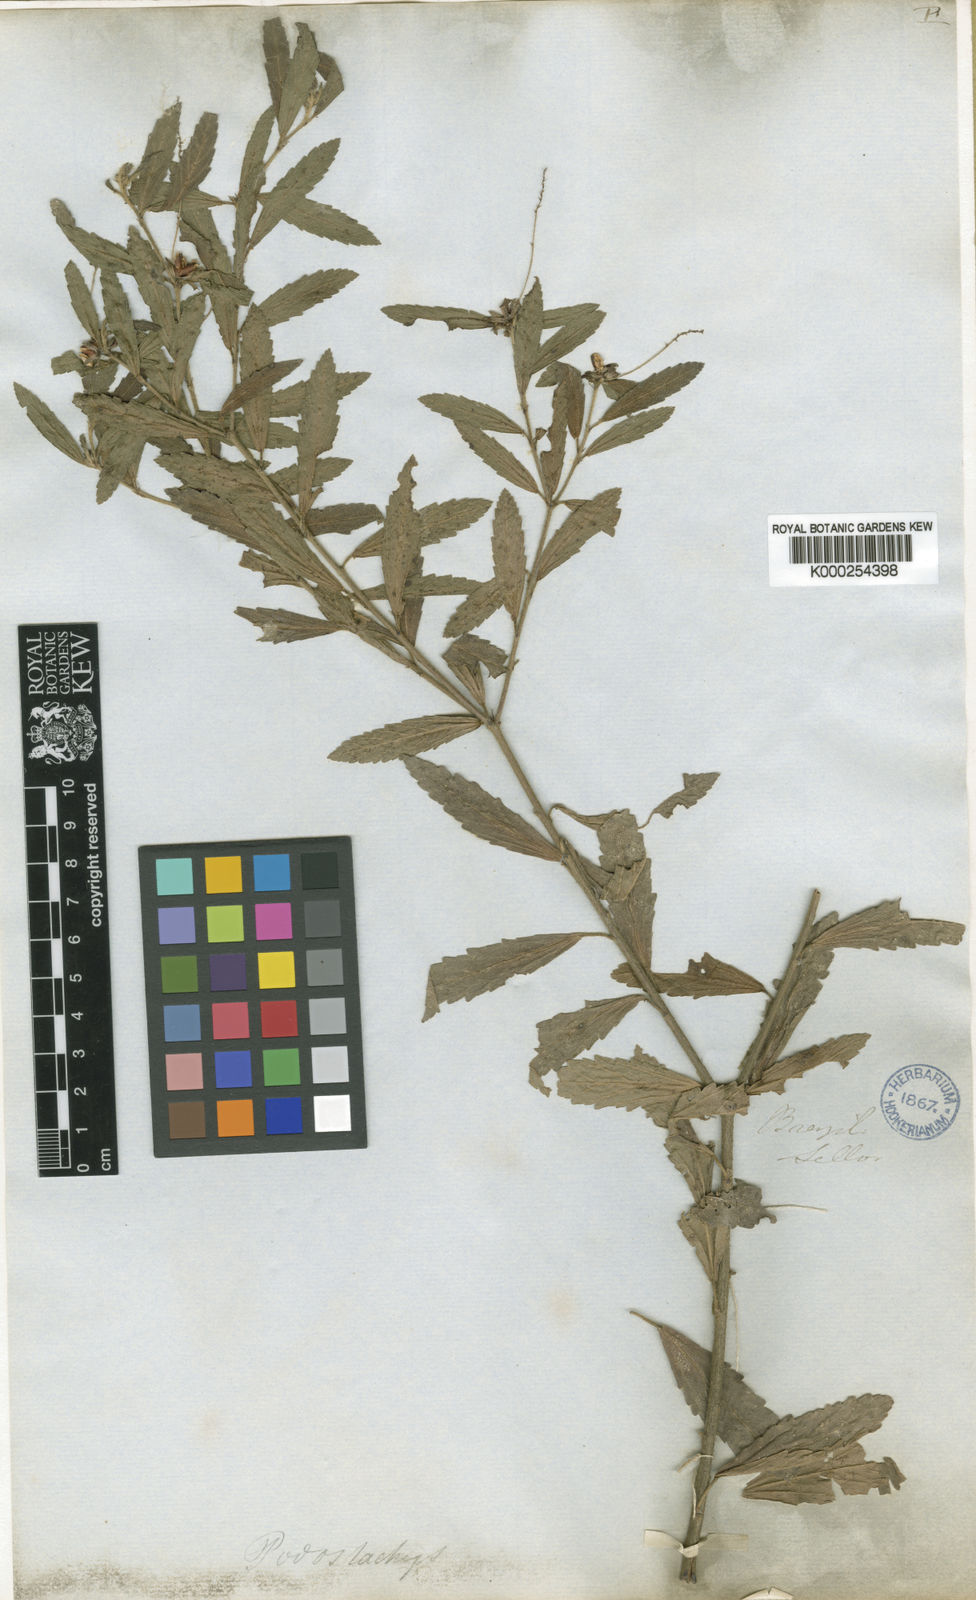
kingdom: Plantae
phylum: Tracheophyta
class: Magnoliopsida
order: Malpighiales
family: Euphorbiaceae
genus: Croton
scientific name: Croton
